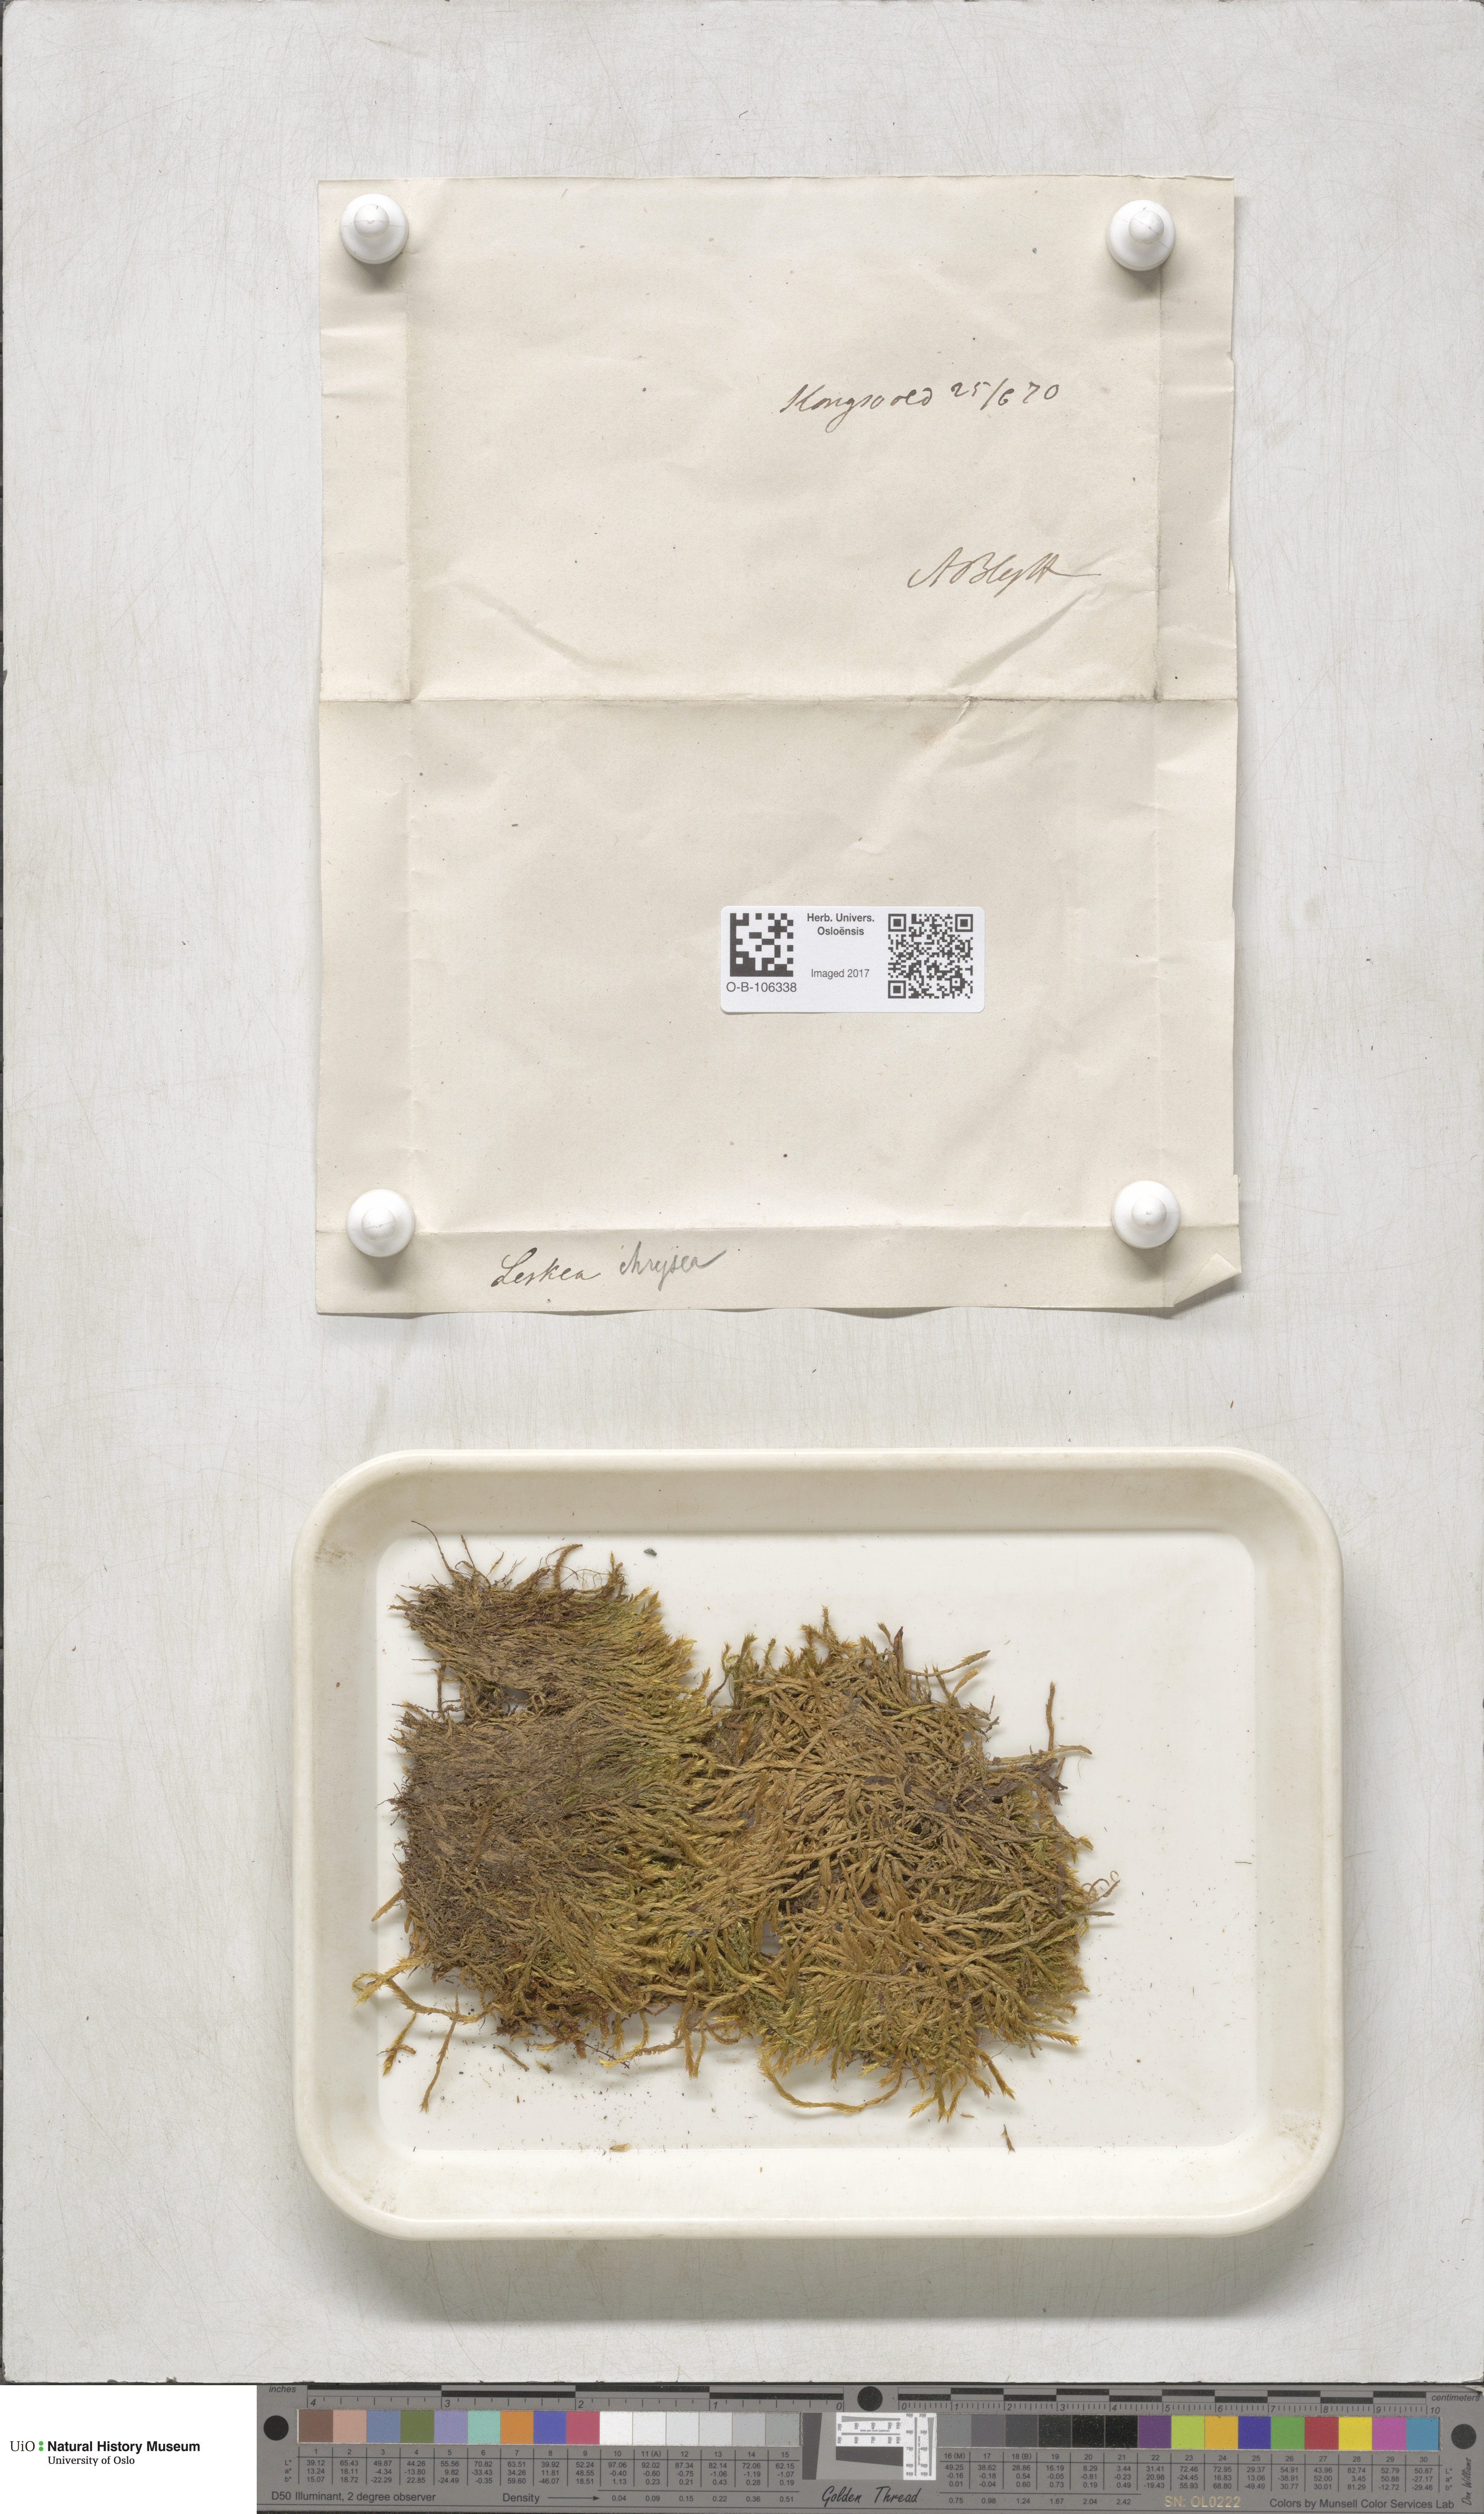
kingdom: Plantae
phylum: Bryophyta
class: Bryopsida
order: Hypnales
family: Plagiotheciaceae
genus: Orthothecium
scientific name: Orthothecium chryseon
